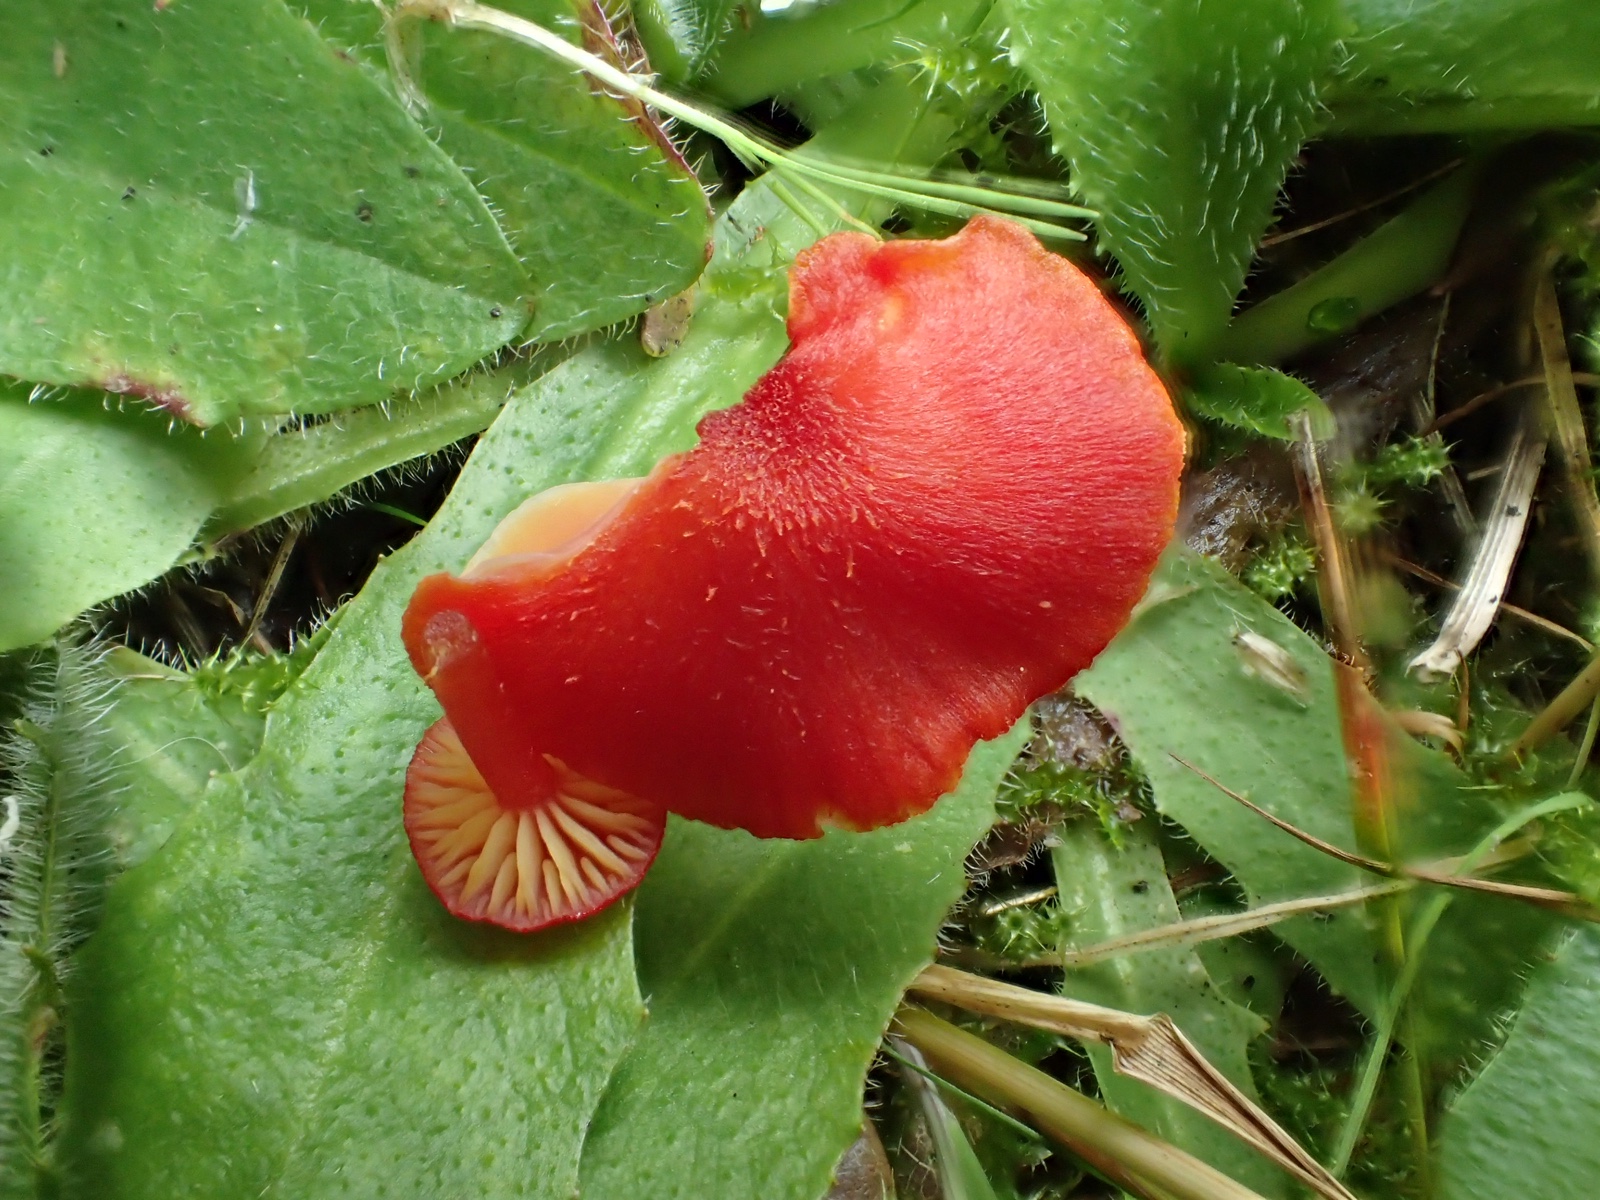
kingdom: Fungi
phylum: Basidiomycota
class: Agaricomycetes
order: Agaricales
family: Hygrophoraceae
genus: Hygrocybe
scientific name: Hygrocybe helobia
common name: hvidløgs-vokshat
